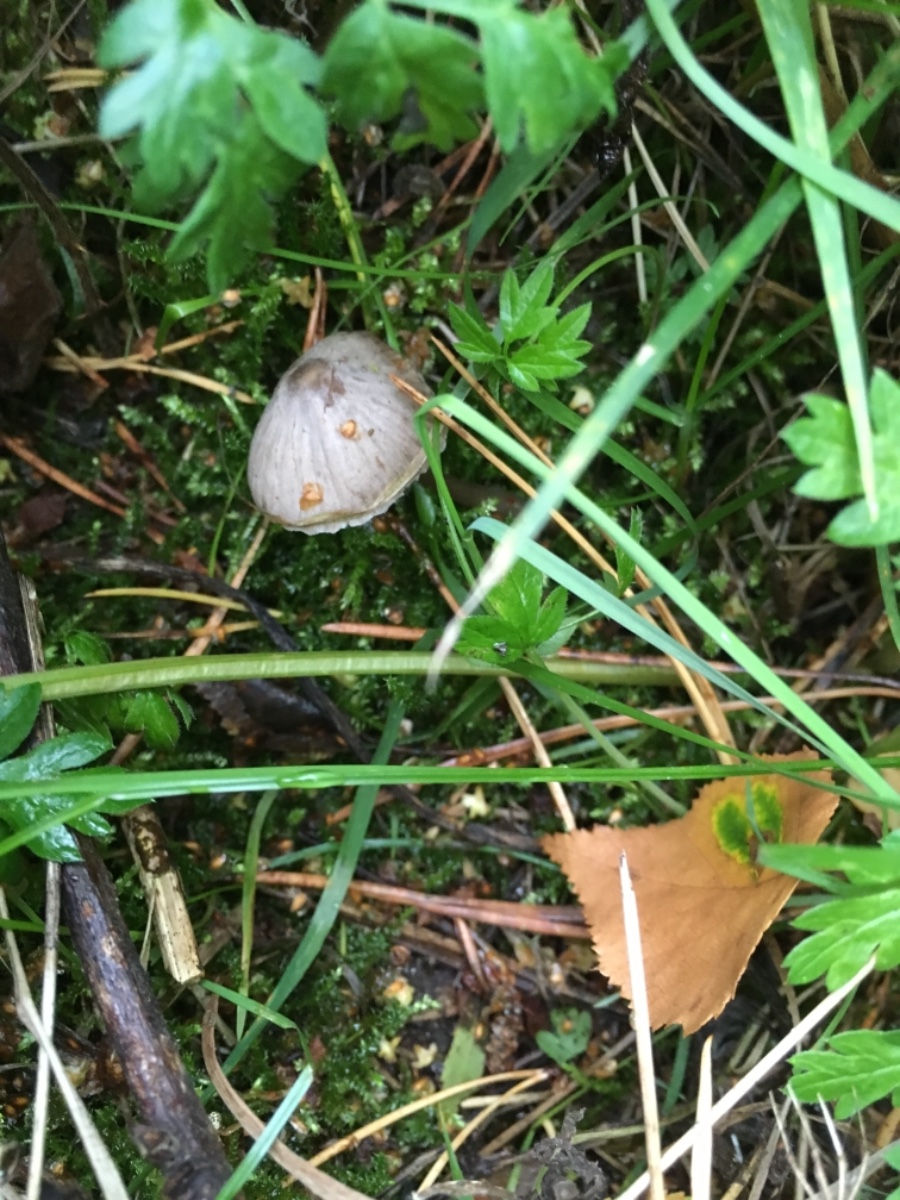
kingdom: Fungi
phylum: Basidiomycota
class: Agaricomycetes
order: Agaricales
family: Mycenaceae
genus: Mycena
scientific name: Mycena
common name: huesvamp
